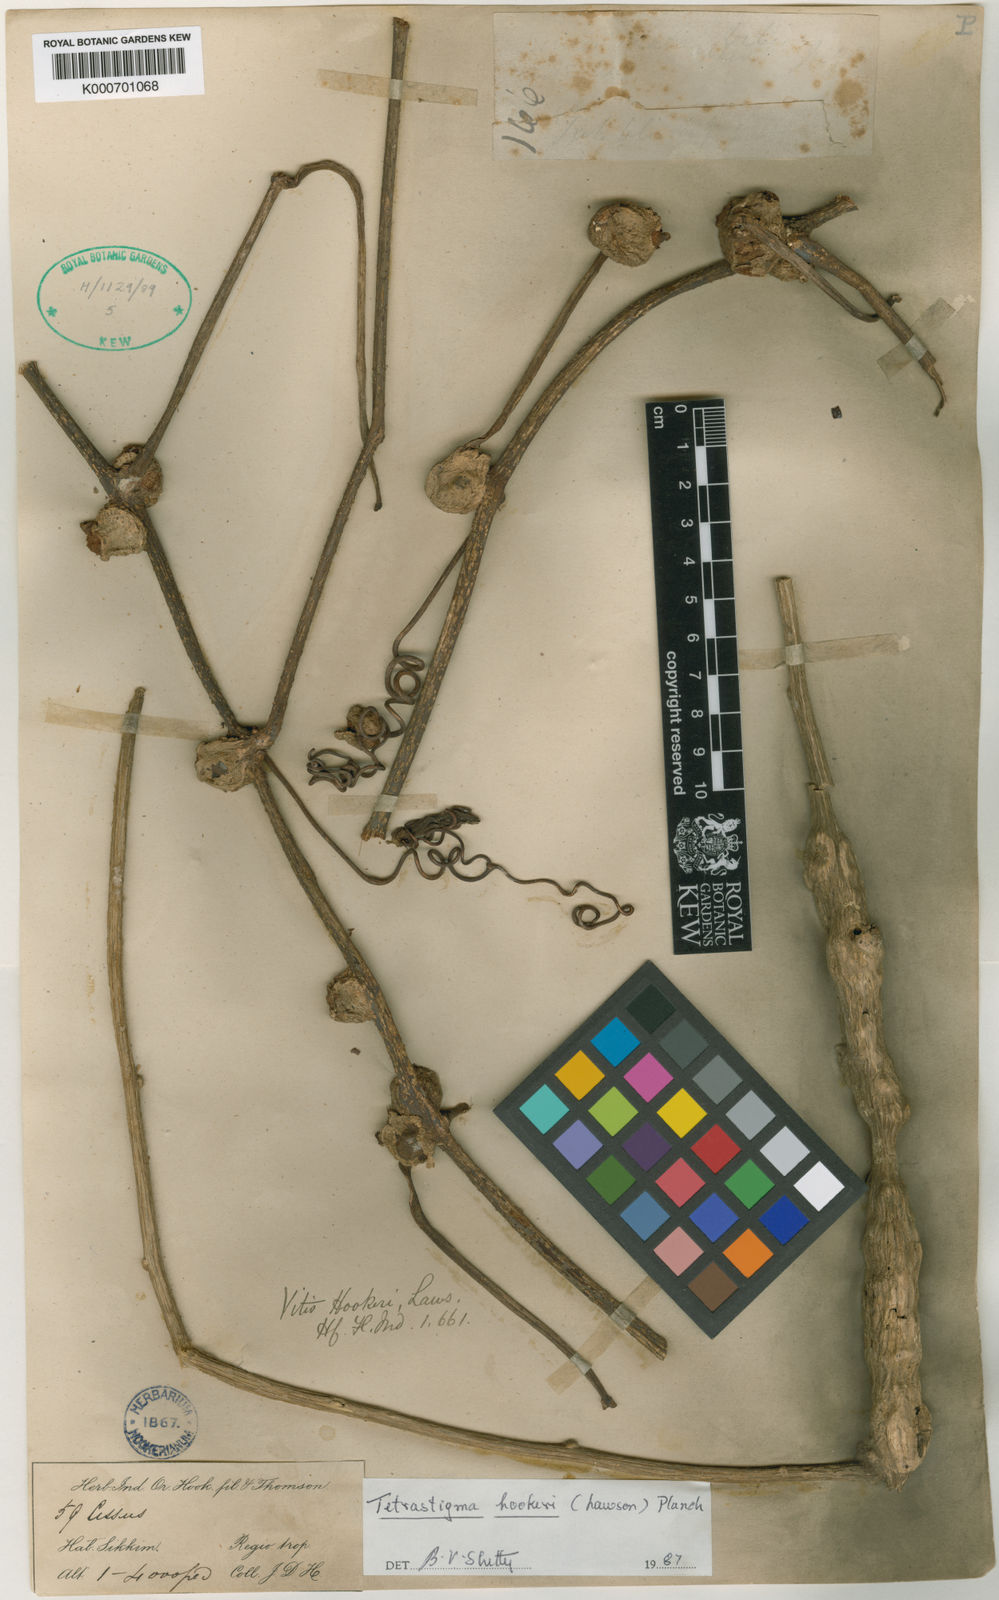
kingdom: Plantae
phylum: Tracheophyta
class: Magnoliopsida
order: Vitales
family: Vitaceae
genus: Tetrastigma
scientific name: Tetrastigma hookeri
